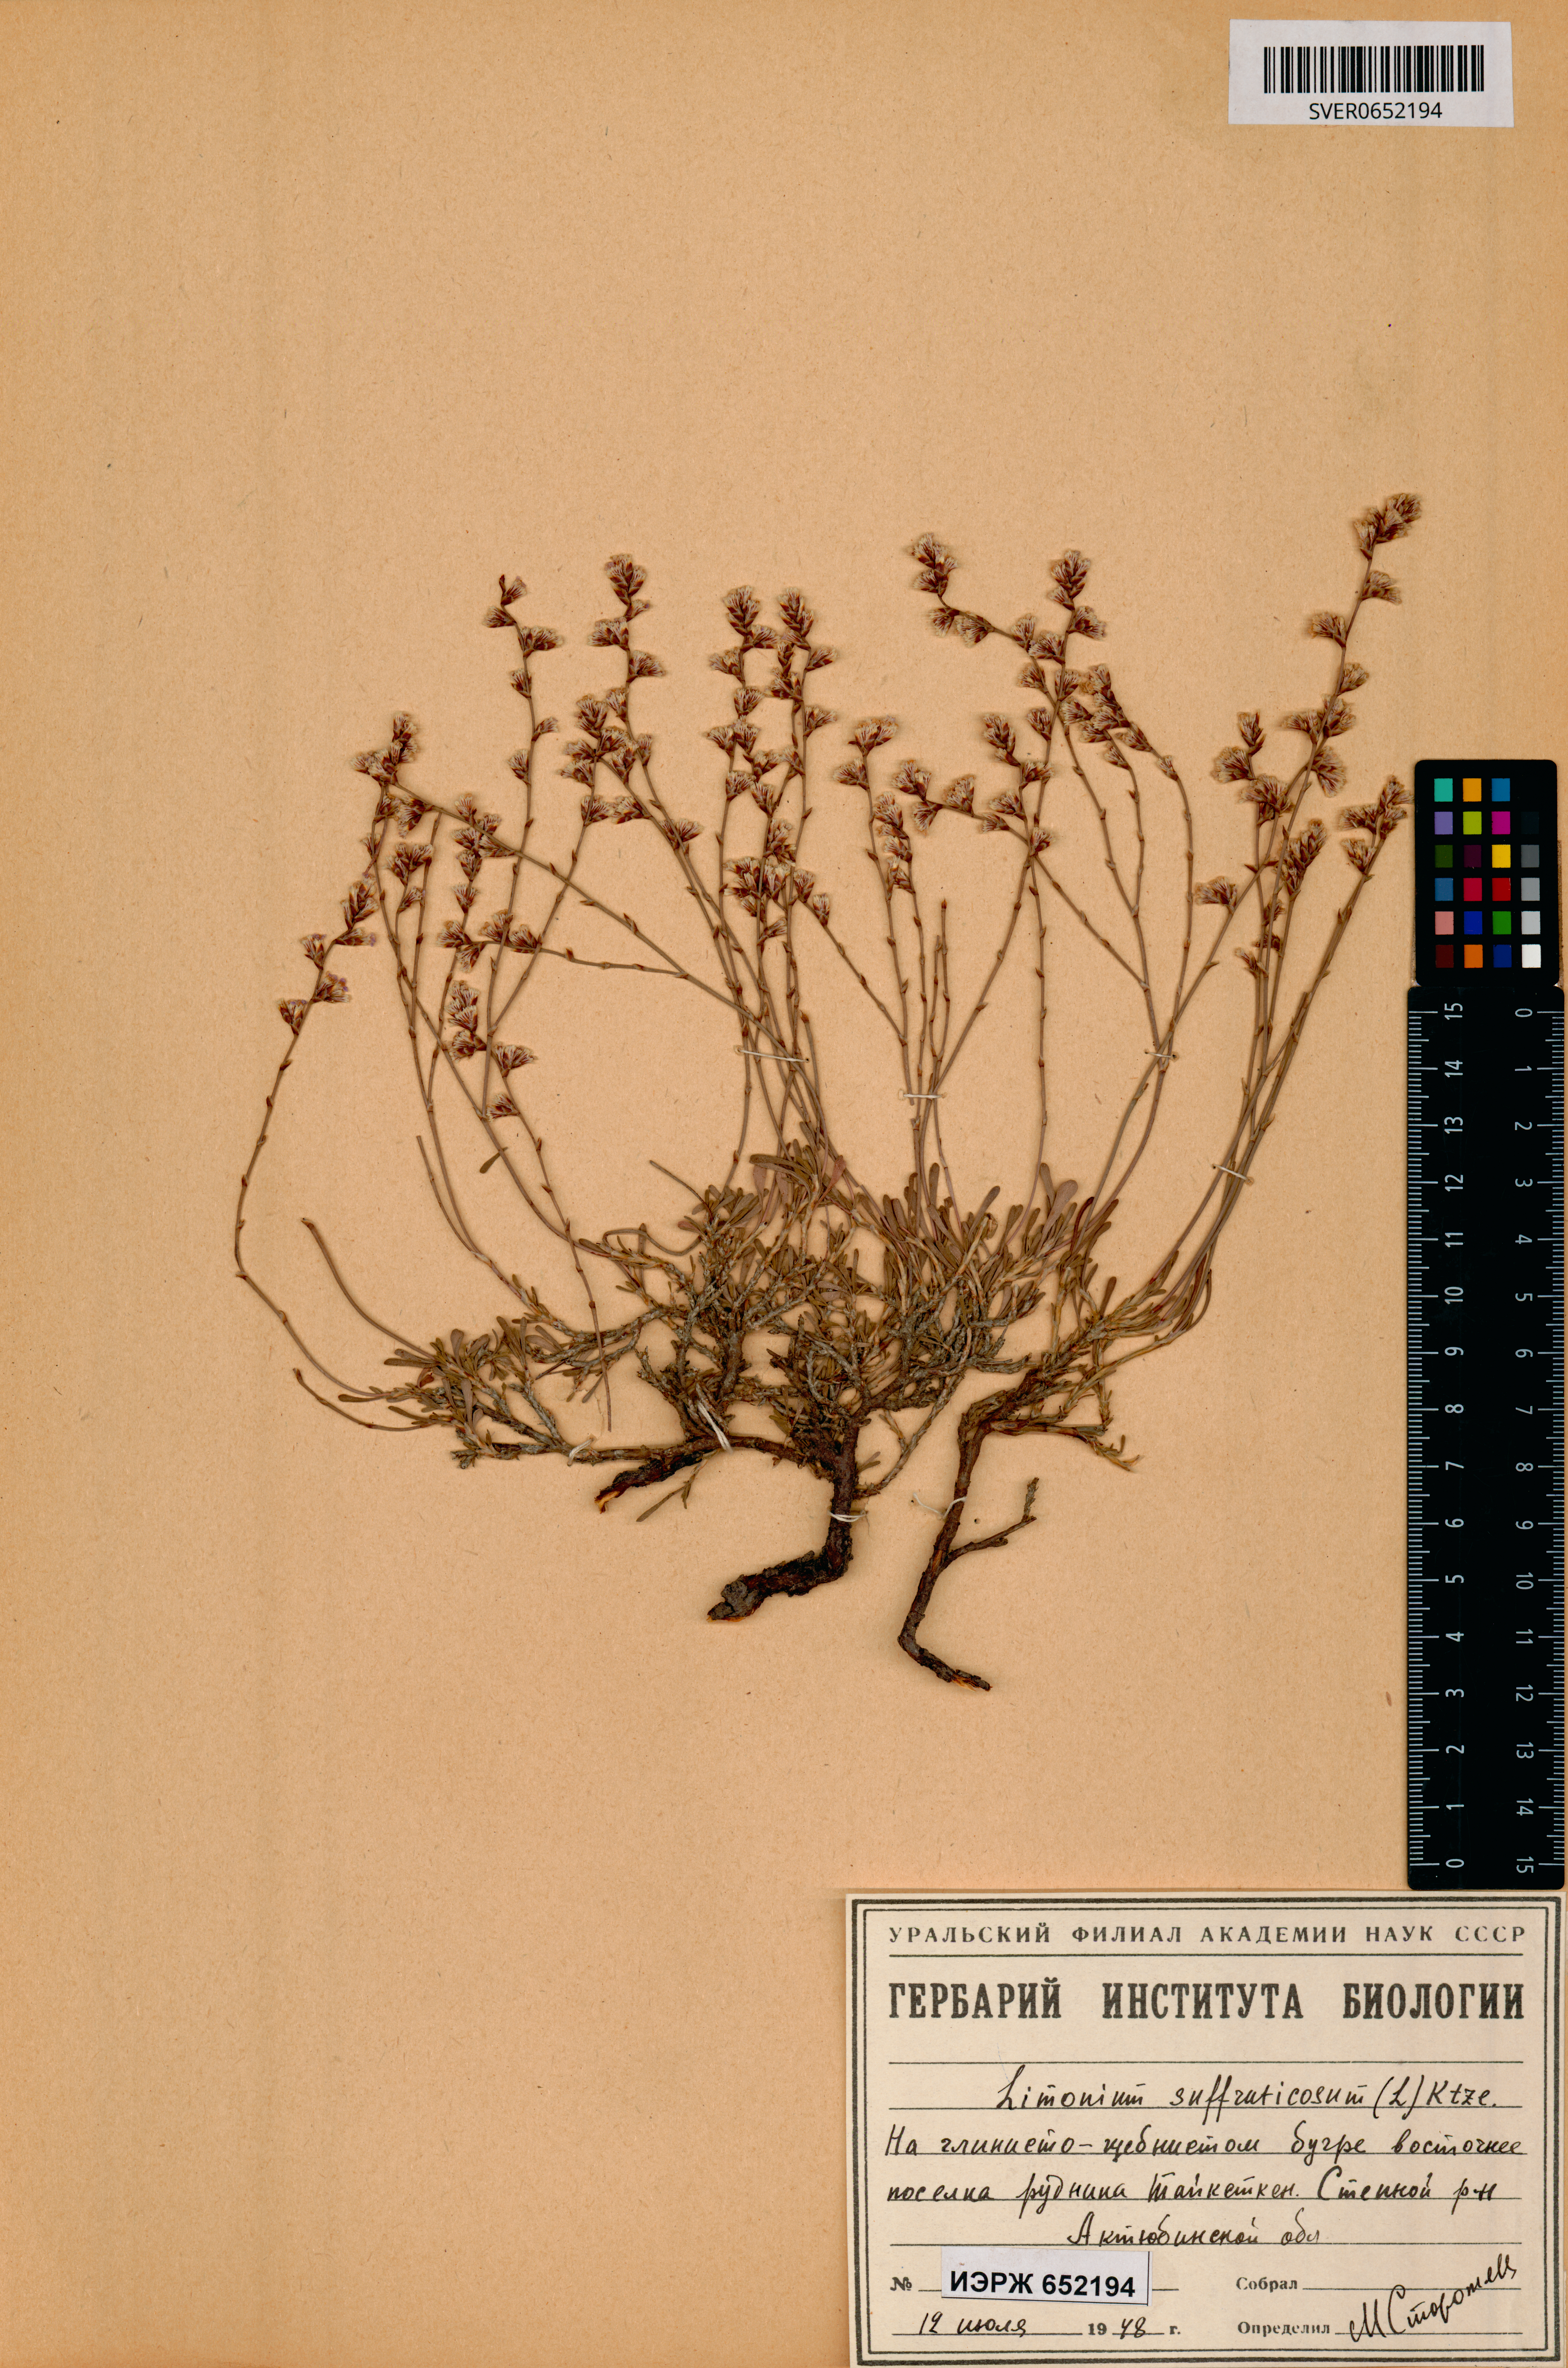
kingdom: Plantae
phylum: Tracheophyta
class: Magnoliopsida
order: Caryophyllales
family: Plumbaginaceae
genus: Limonium
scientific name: Limonium suffruticosum
